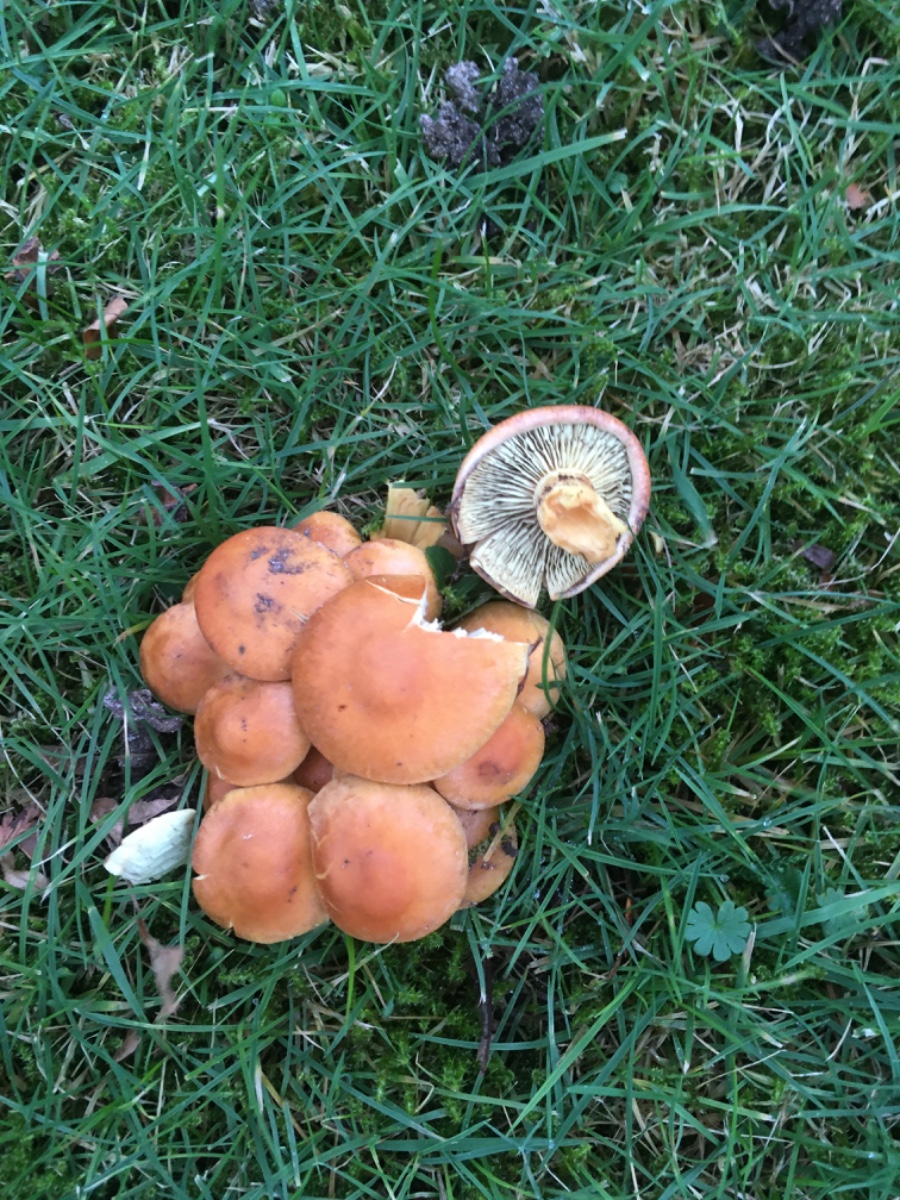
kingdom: Fungi
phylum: Basidiomycota
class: Agaricomycetes
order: Agaricales
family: Strophariaceae
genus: Hypholoma
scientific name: Hypholoma fasciculare
